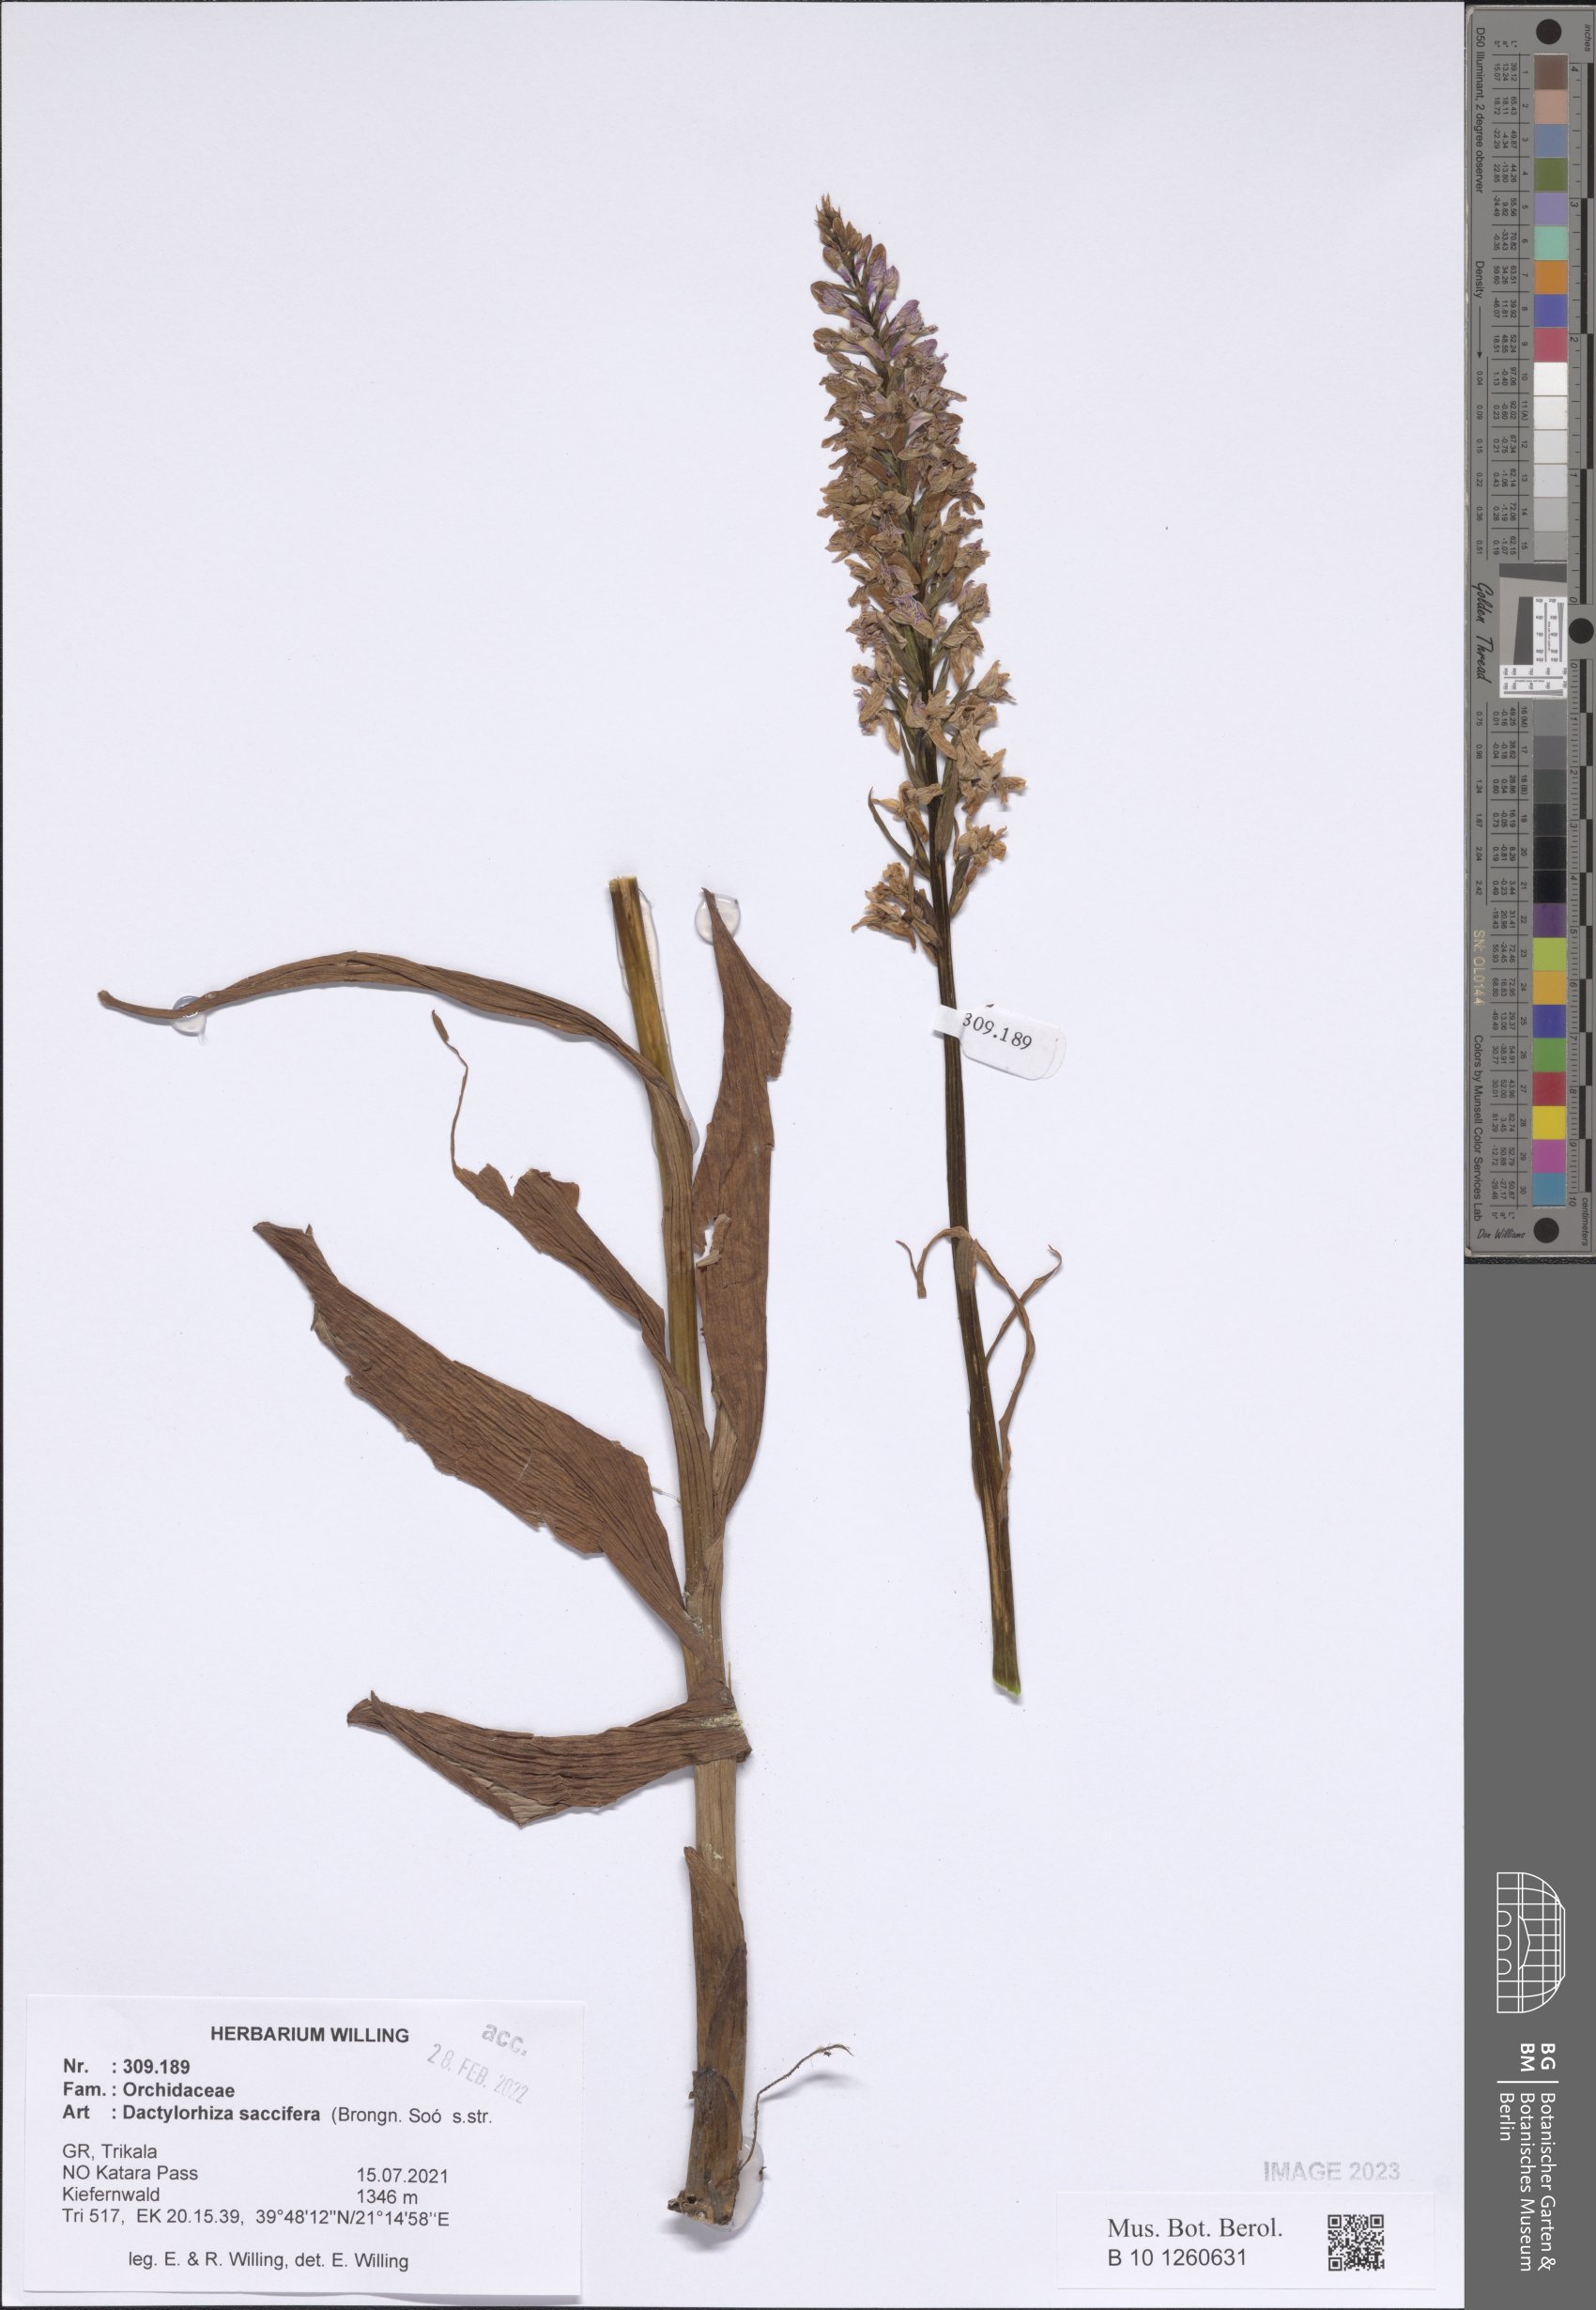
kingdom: Plantae
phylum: Tracheophyta
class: Liliopsida
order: Asparagales
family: Orchidaceae
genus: Dactylorhiza
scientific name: Dactylorhiza maculata
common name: Heath spotted-orchid
